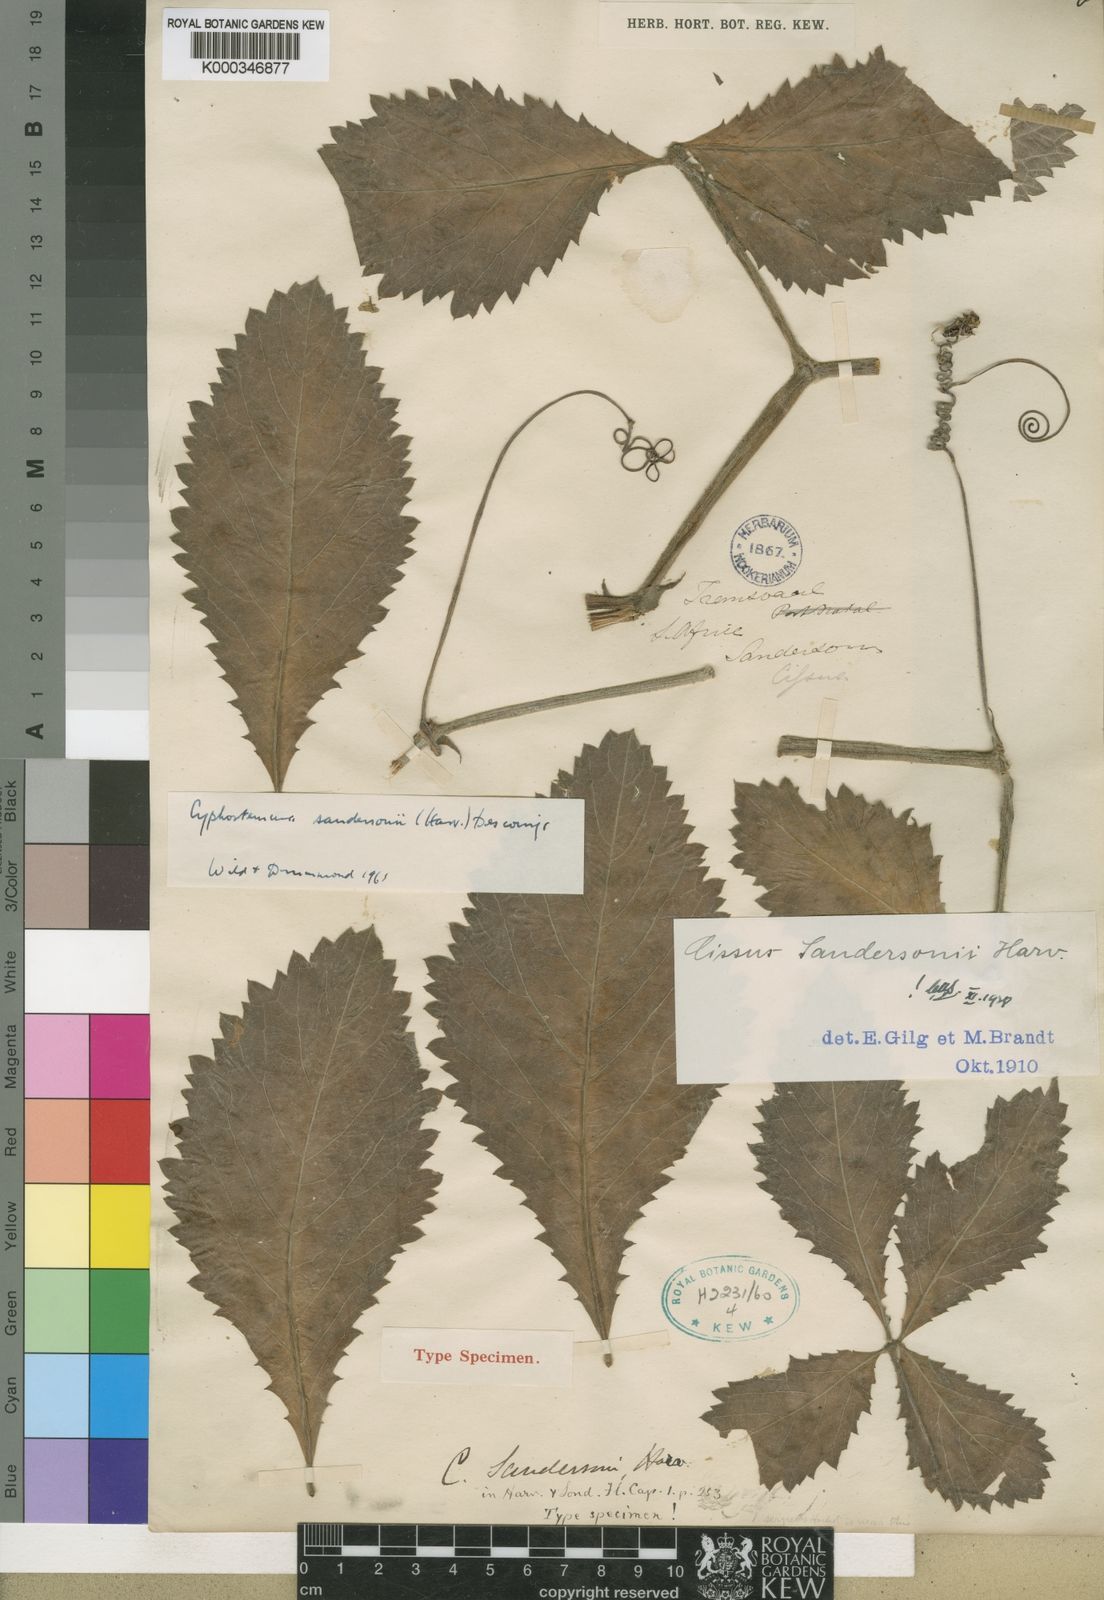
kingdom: Plantae
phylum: Tracheophyta
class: Magnoliopsida
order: Vitales
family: Vitaceae
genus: Cyphostemma
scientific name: Cyphostemma sandersonii
